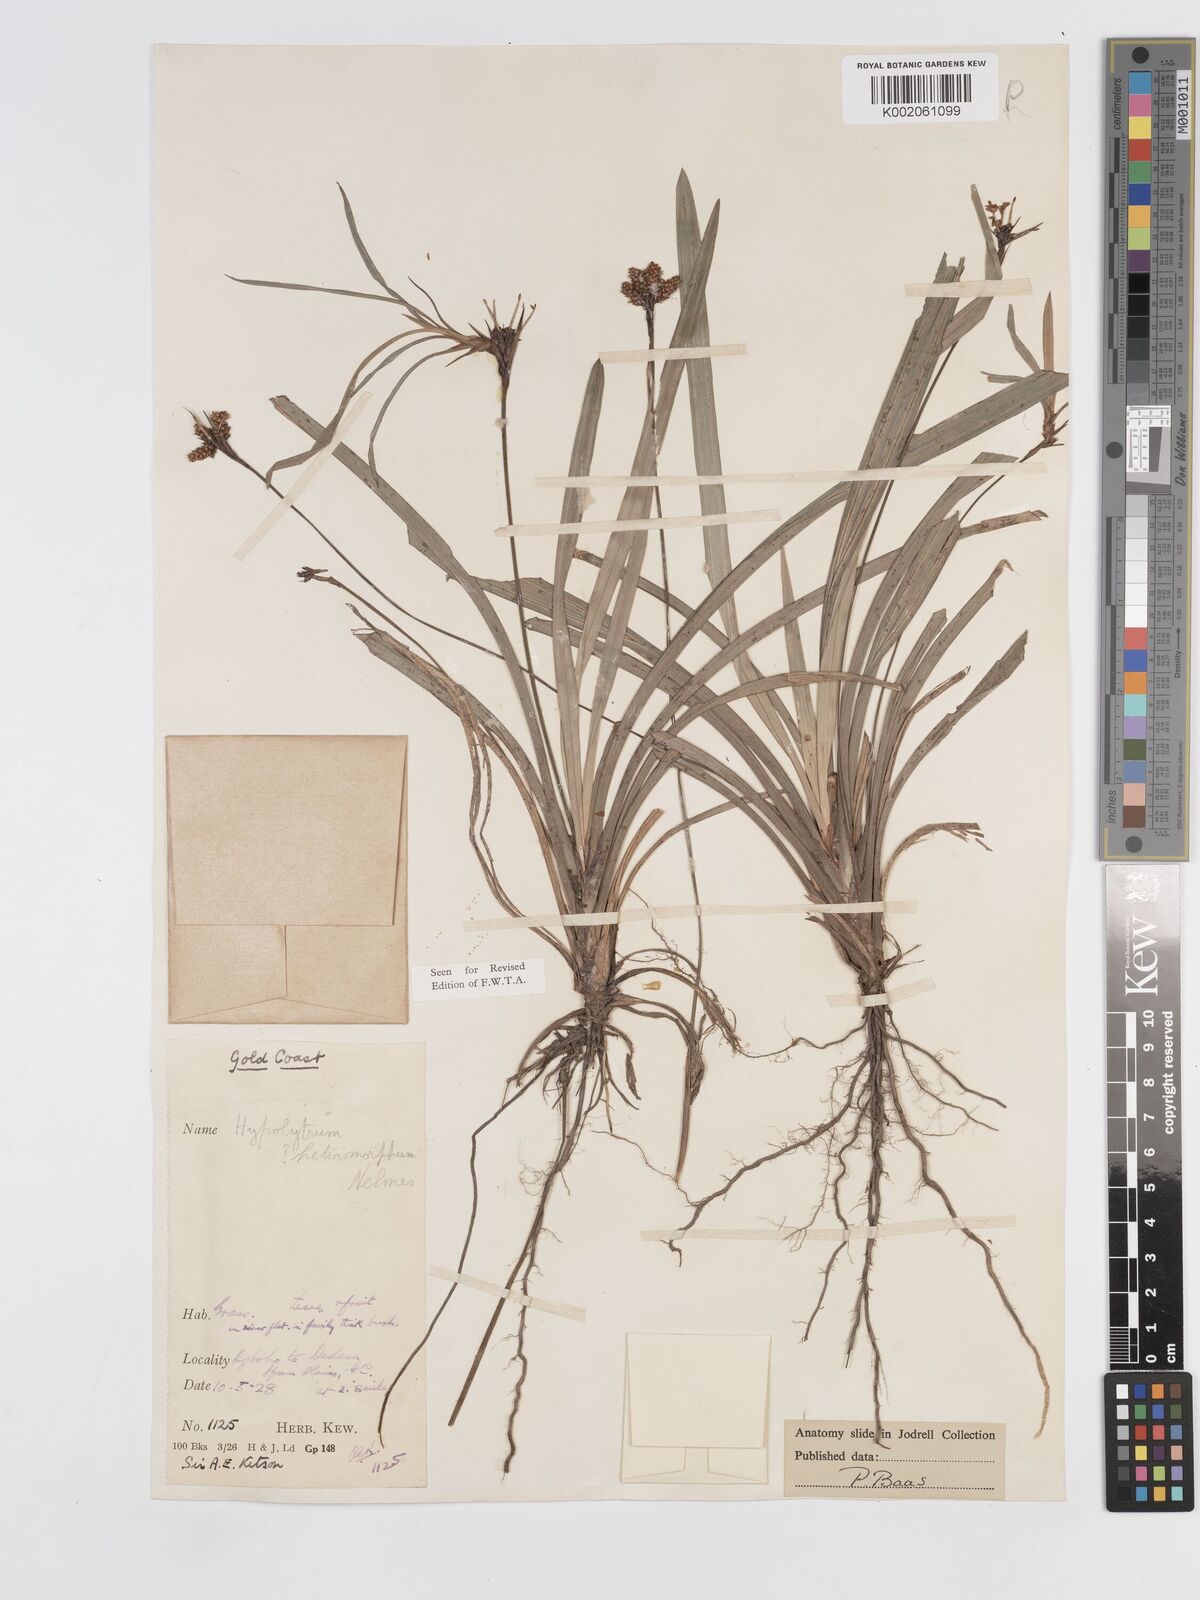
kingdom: Plantae
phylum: Tracheophyta
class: Liliopsida
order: Poales
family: Cyperaceae
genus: Hypolytrum
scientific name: Hypolytrum heteromorphum
